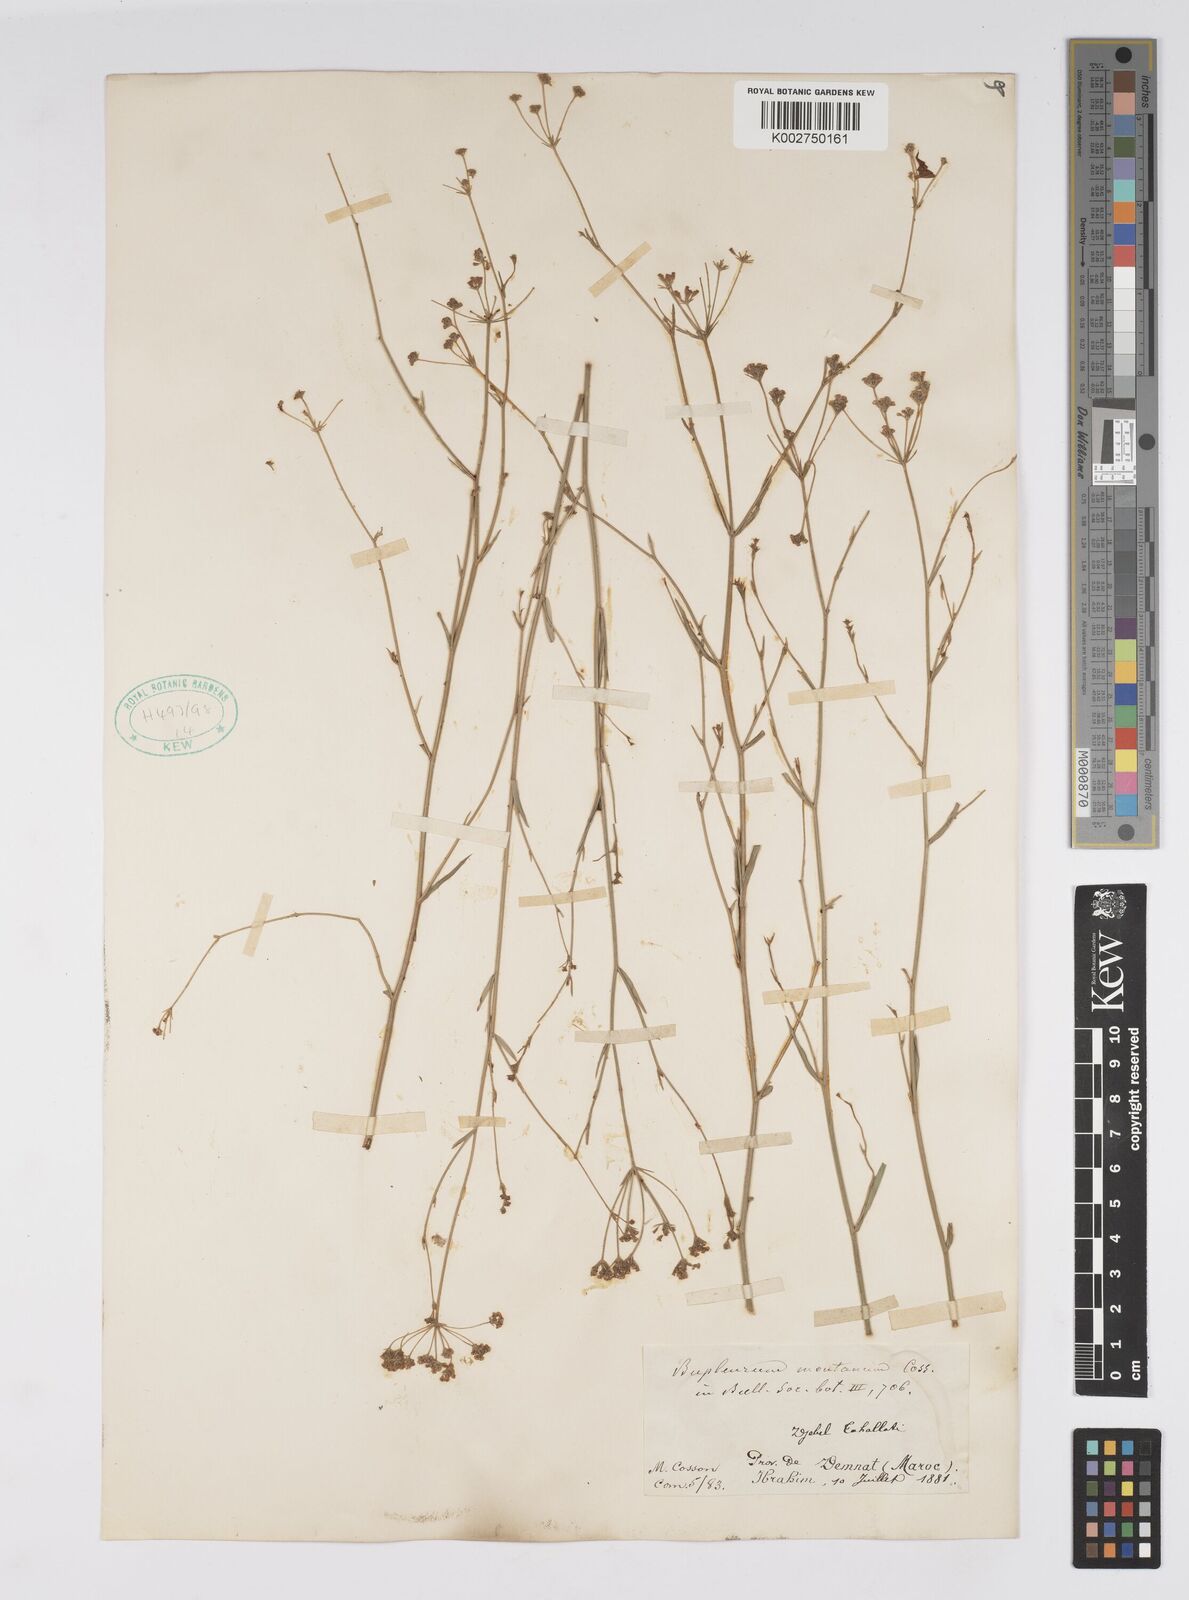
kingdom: Plantae
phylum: Tracheophyta
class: Magnoliopsida
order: Apiales
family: Apiaceae
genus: Bupleurum
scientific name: Bupleurum montanum
